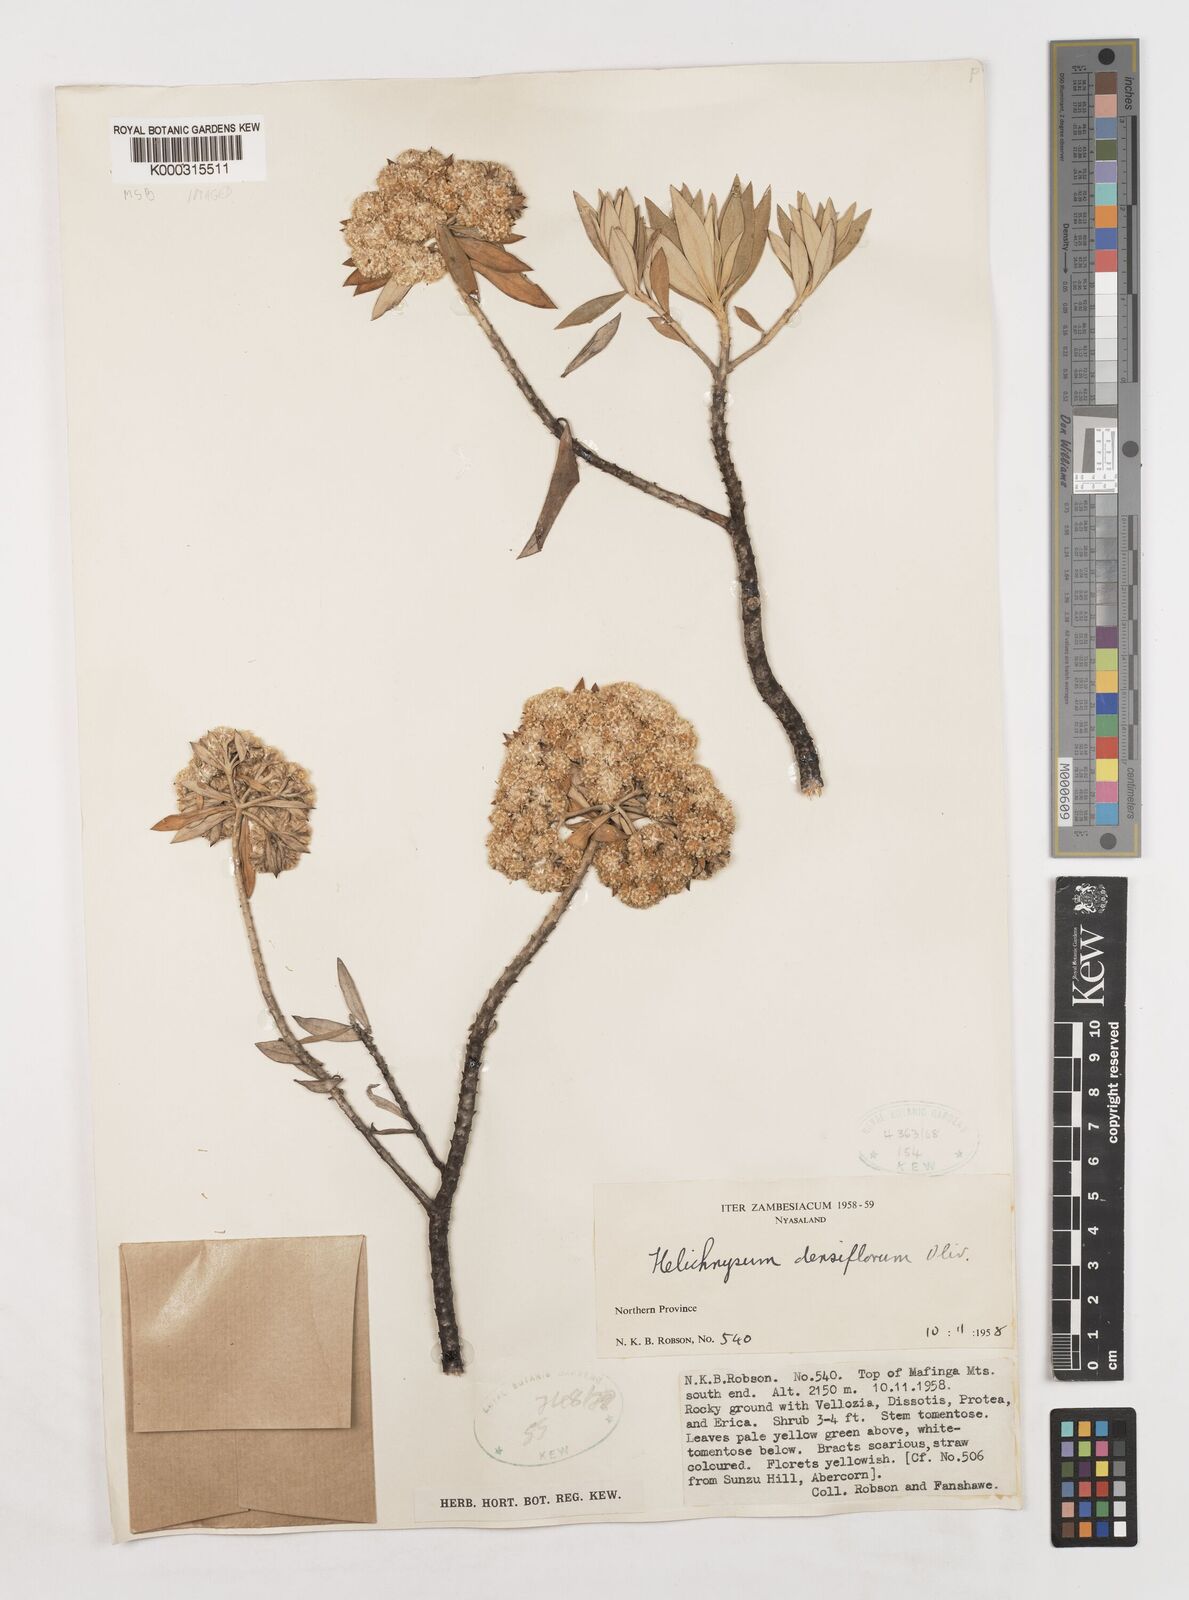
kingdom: Plantae
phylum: Tracheophyta
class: Magnoliopsida
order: Asterales
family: Asteraceae
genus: Helichrysum
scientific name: Helichrysum densiflorum
